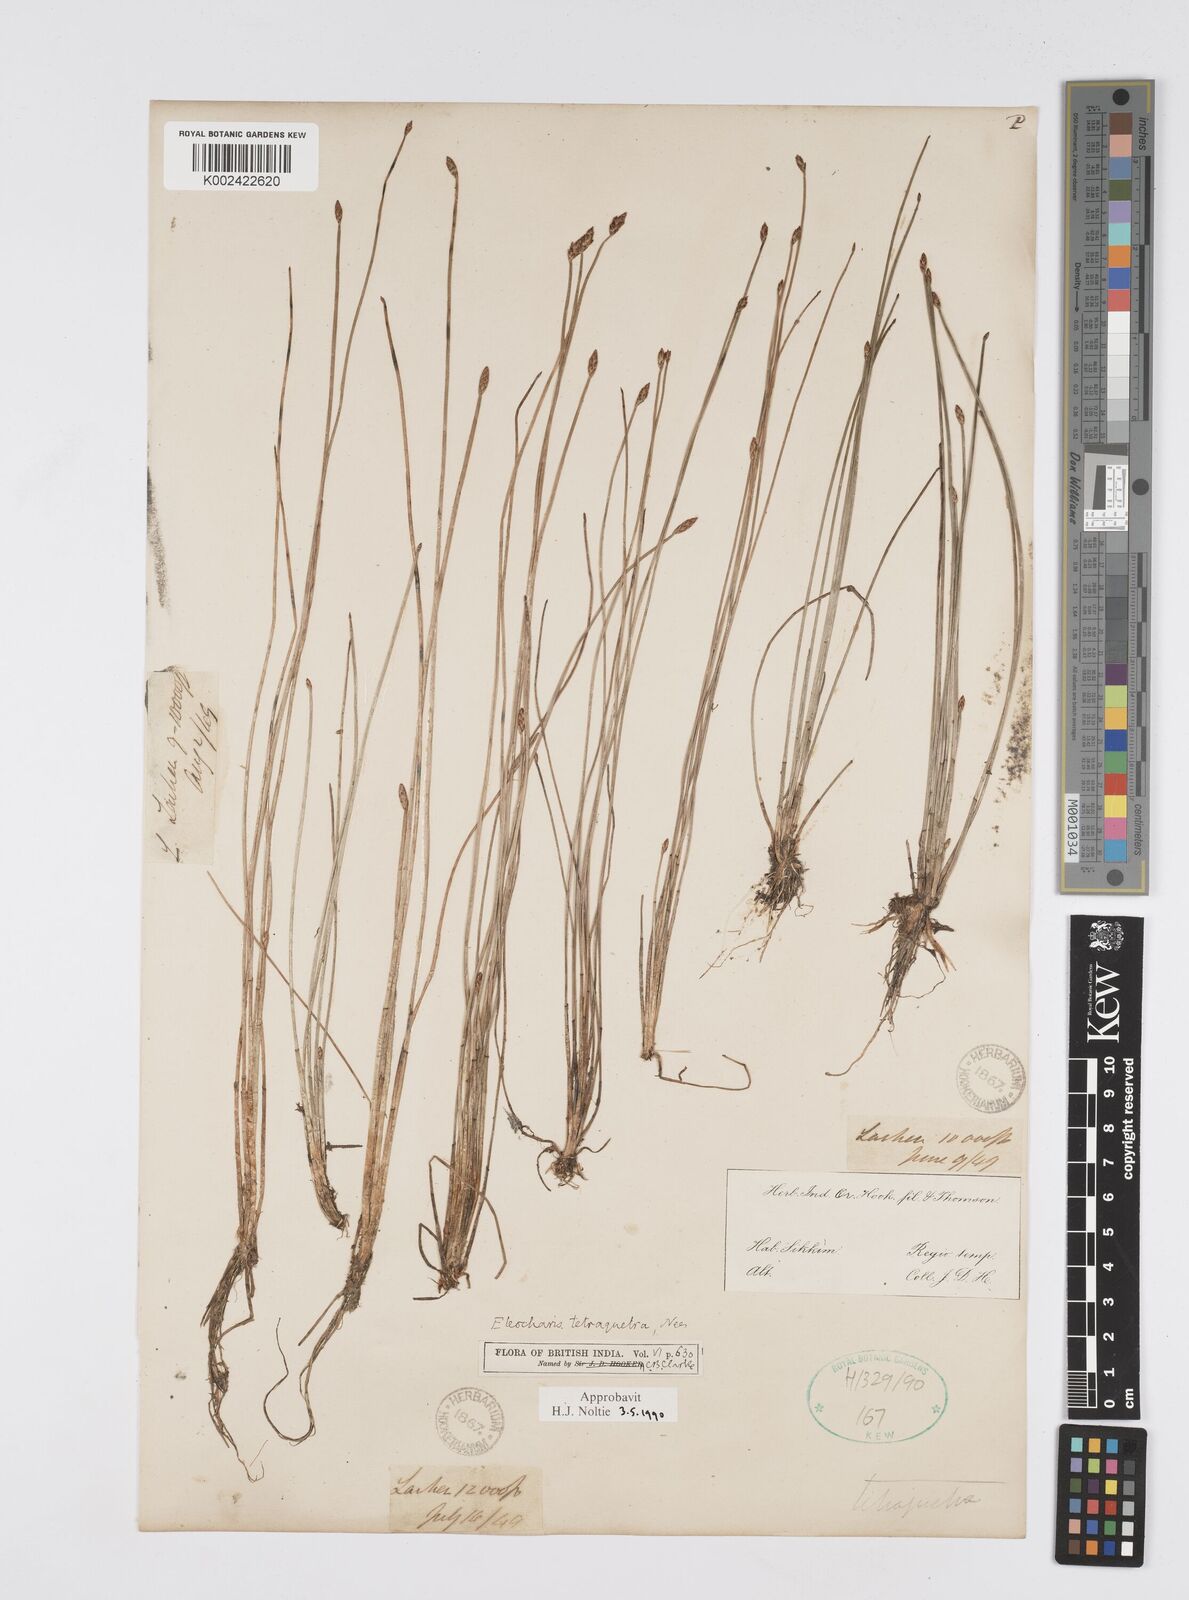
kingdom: Plantae
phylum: Tracheophyta
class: Liliopsida
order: Poales
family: Cyperaceae
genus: Eleocharis
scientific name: Eleocharis tetraquetra
